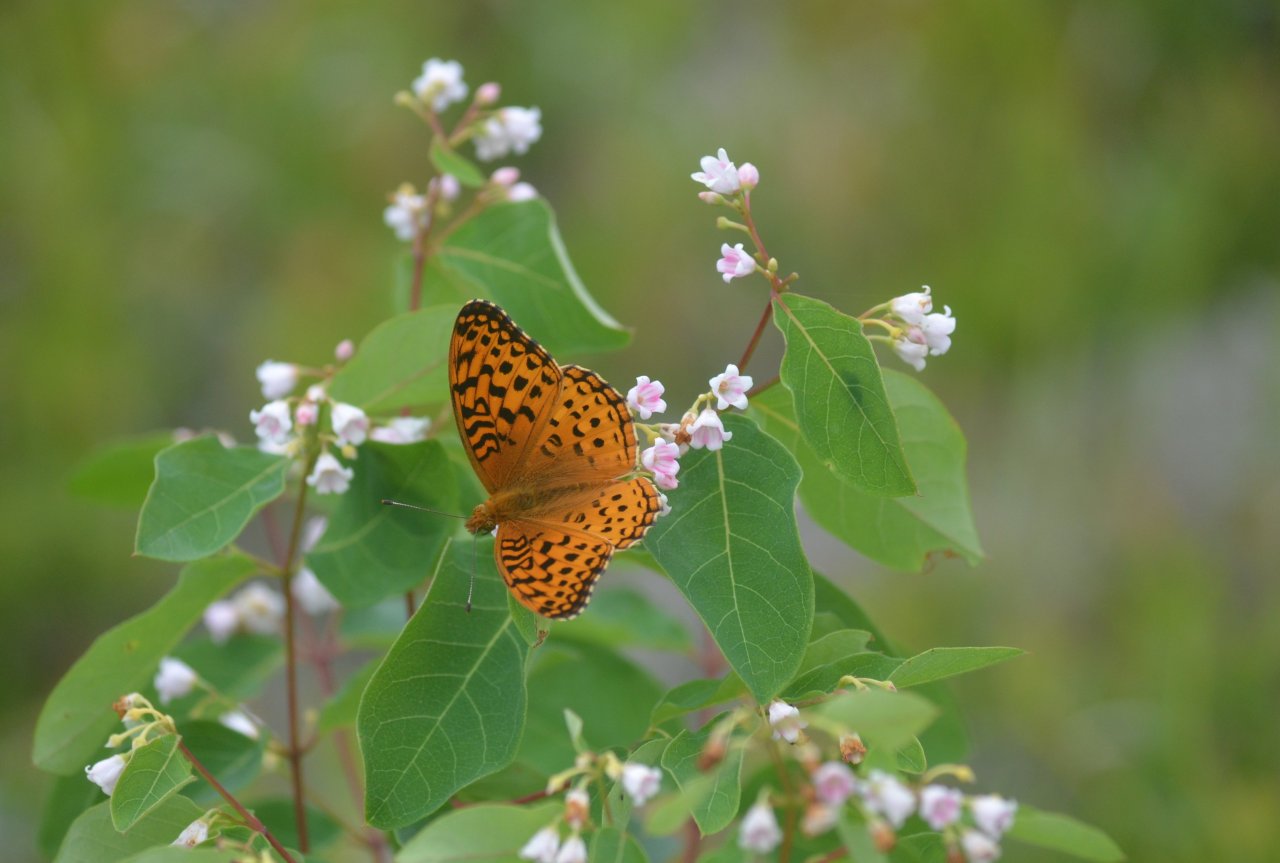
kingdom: Animalia
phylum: Arthropoda
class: Insecta
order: Lepidoptera
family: Nymphalidae
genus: Speyeria
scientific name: Speyeria aphrodite
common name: Aphrodite Fritillary
